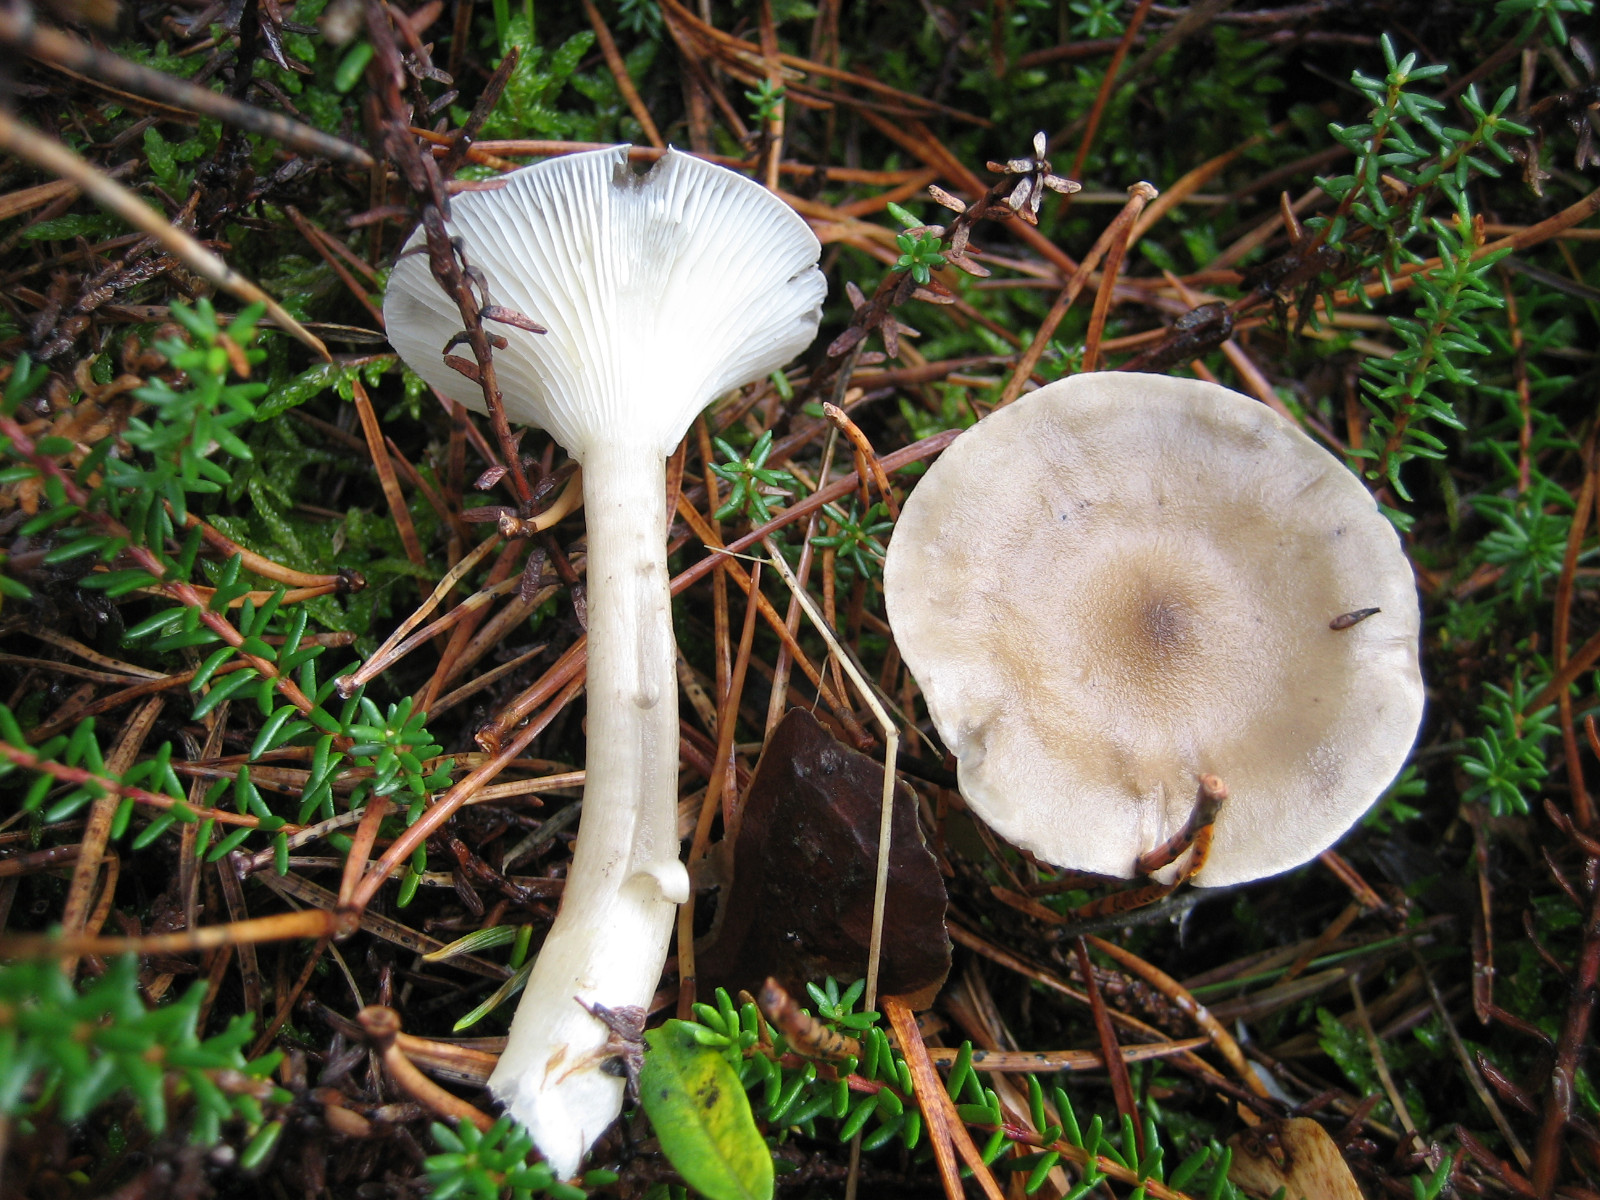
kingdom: Fungi
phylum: Basidiomycota
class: Agaricomycetes
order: Agaricales
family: Hygrophoraceae
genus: Ampulloclitocybe
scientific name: Ampulloclitocybe clavipes
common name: køllefod
